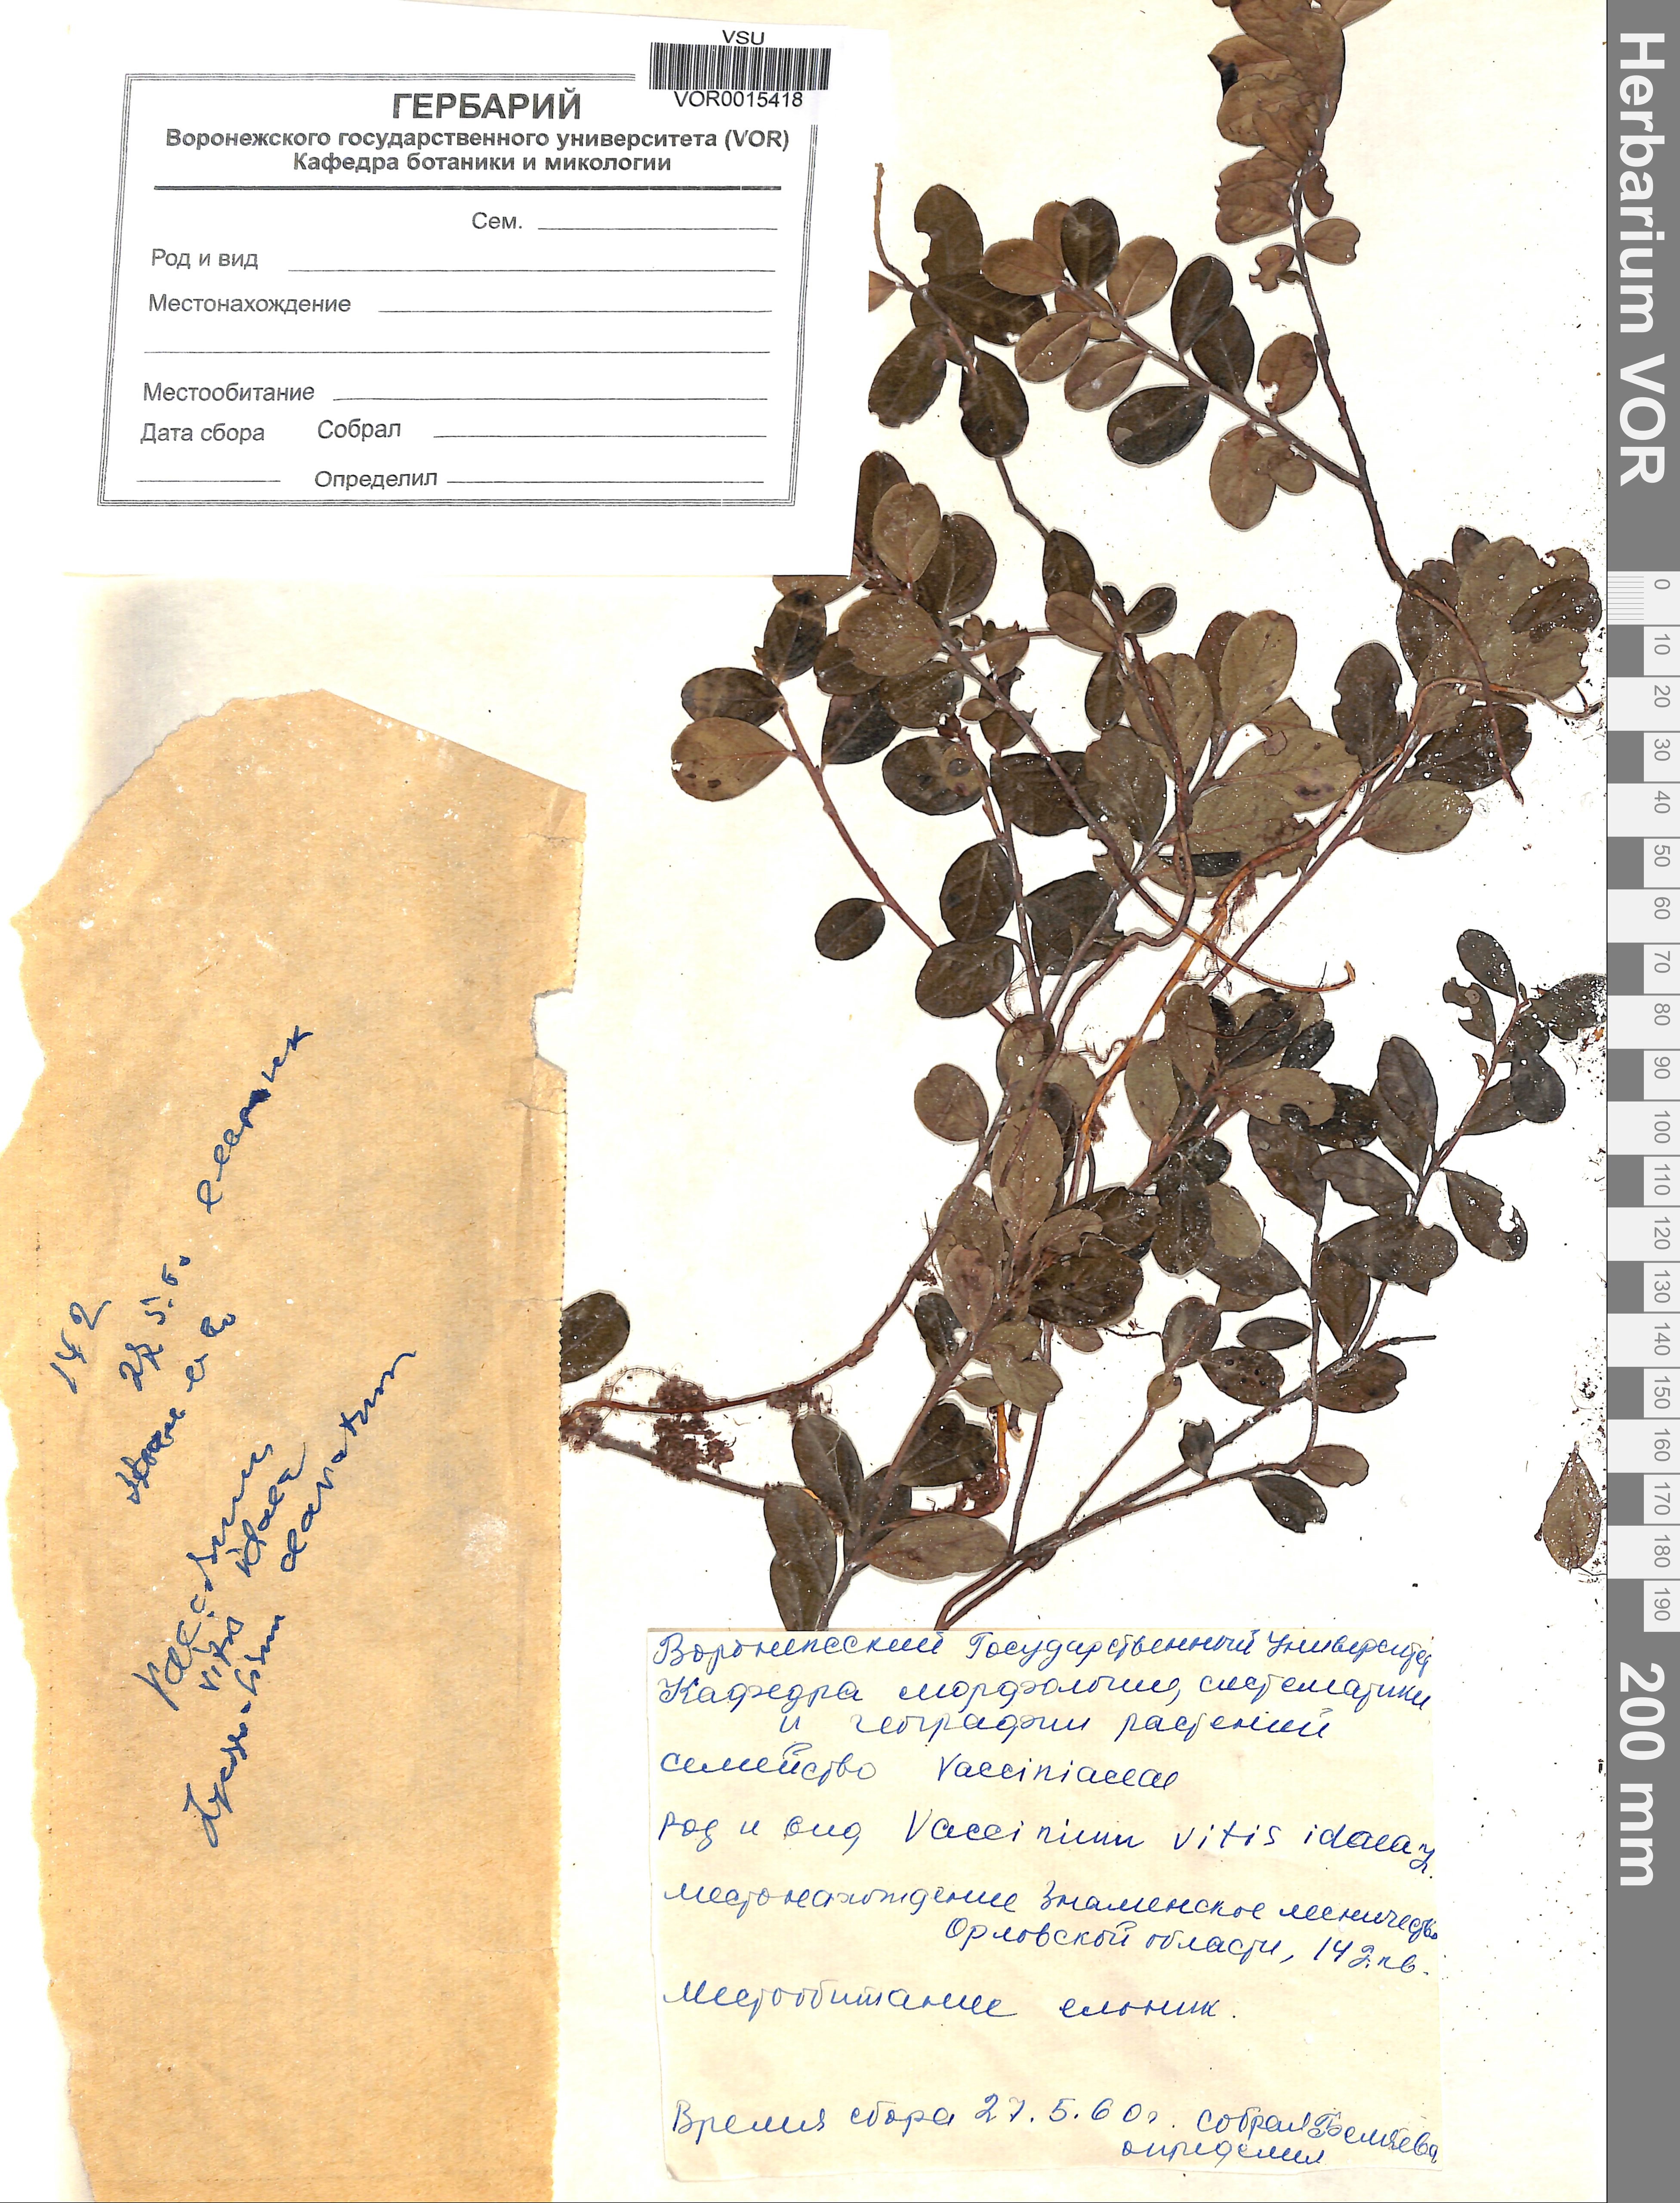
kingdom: Plantae
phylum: Tracheophyta
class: Magnoliopsida
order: Ericales
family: Ericaceae
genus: Vaccinium
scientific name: Vaccinium vitis-idaea
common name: Cowberry
